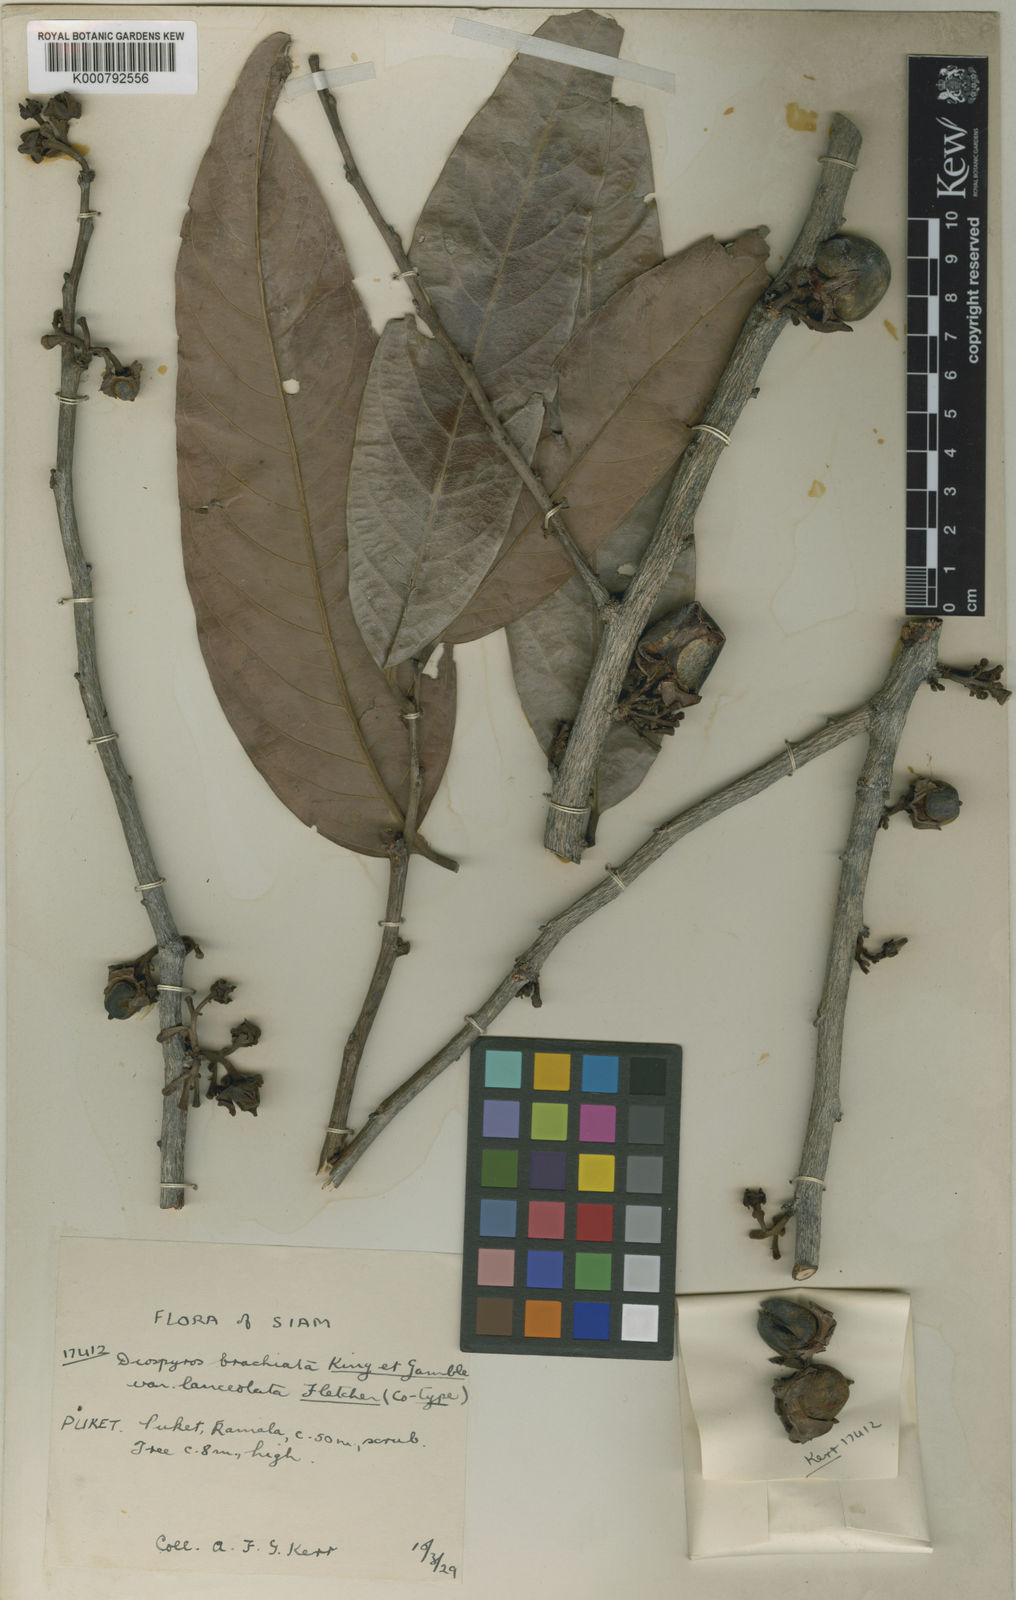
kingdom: Plantae
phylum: Tracheophyta
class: Magnoliopsida
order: Ericales
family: Ebenaceae
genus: Diospyros
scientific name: Diospyros hasseltii
